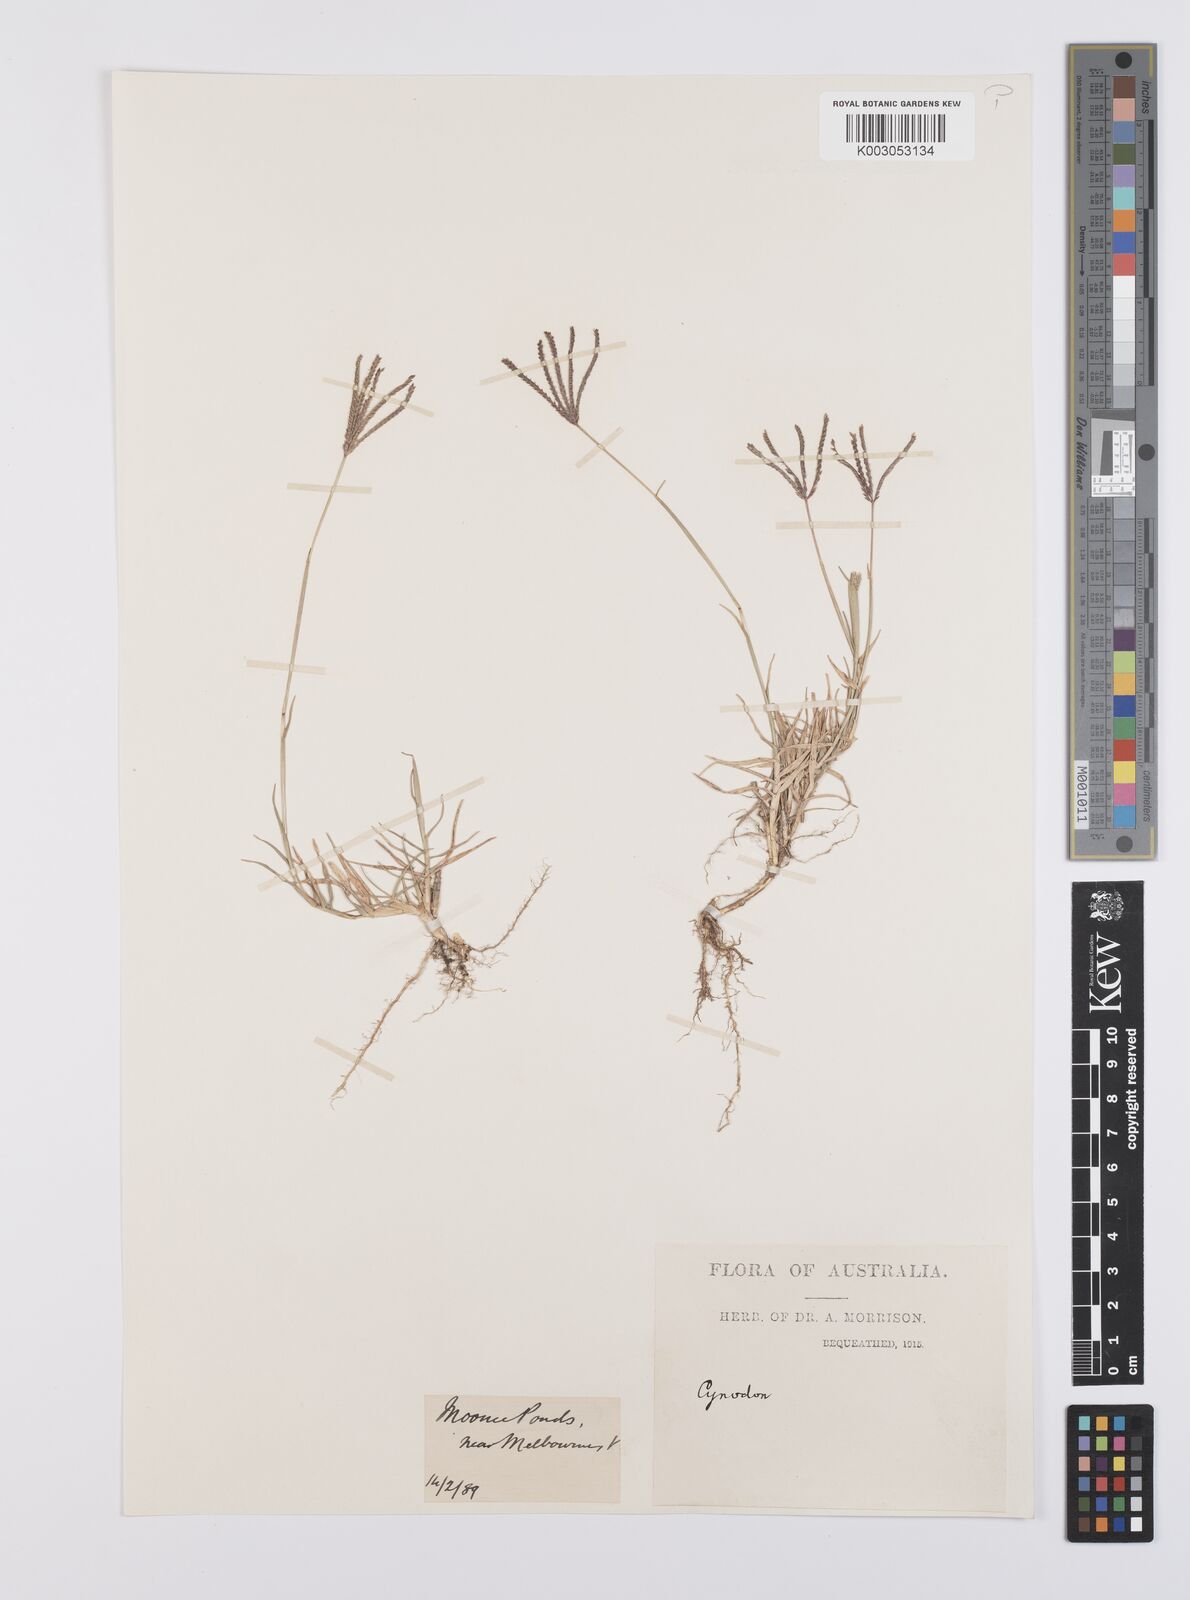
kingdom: Plantae
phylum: Tracheophyta
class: Liliopsida
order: Poales
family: Poaceae
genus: Cynodon
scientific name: Cynodon dactylon
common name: Bermuda grass
